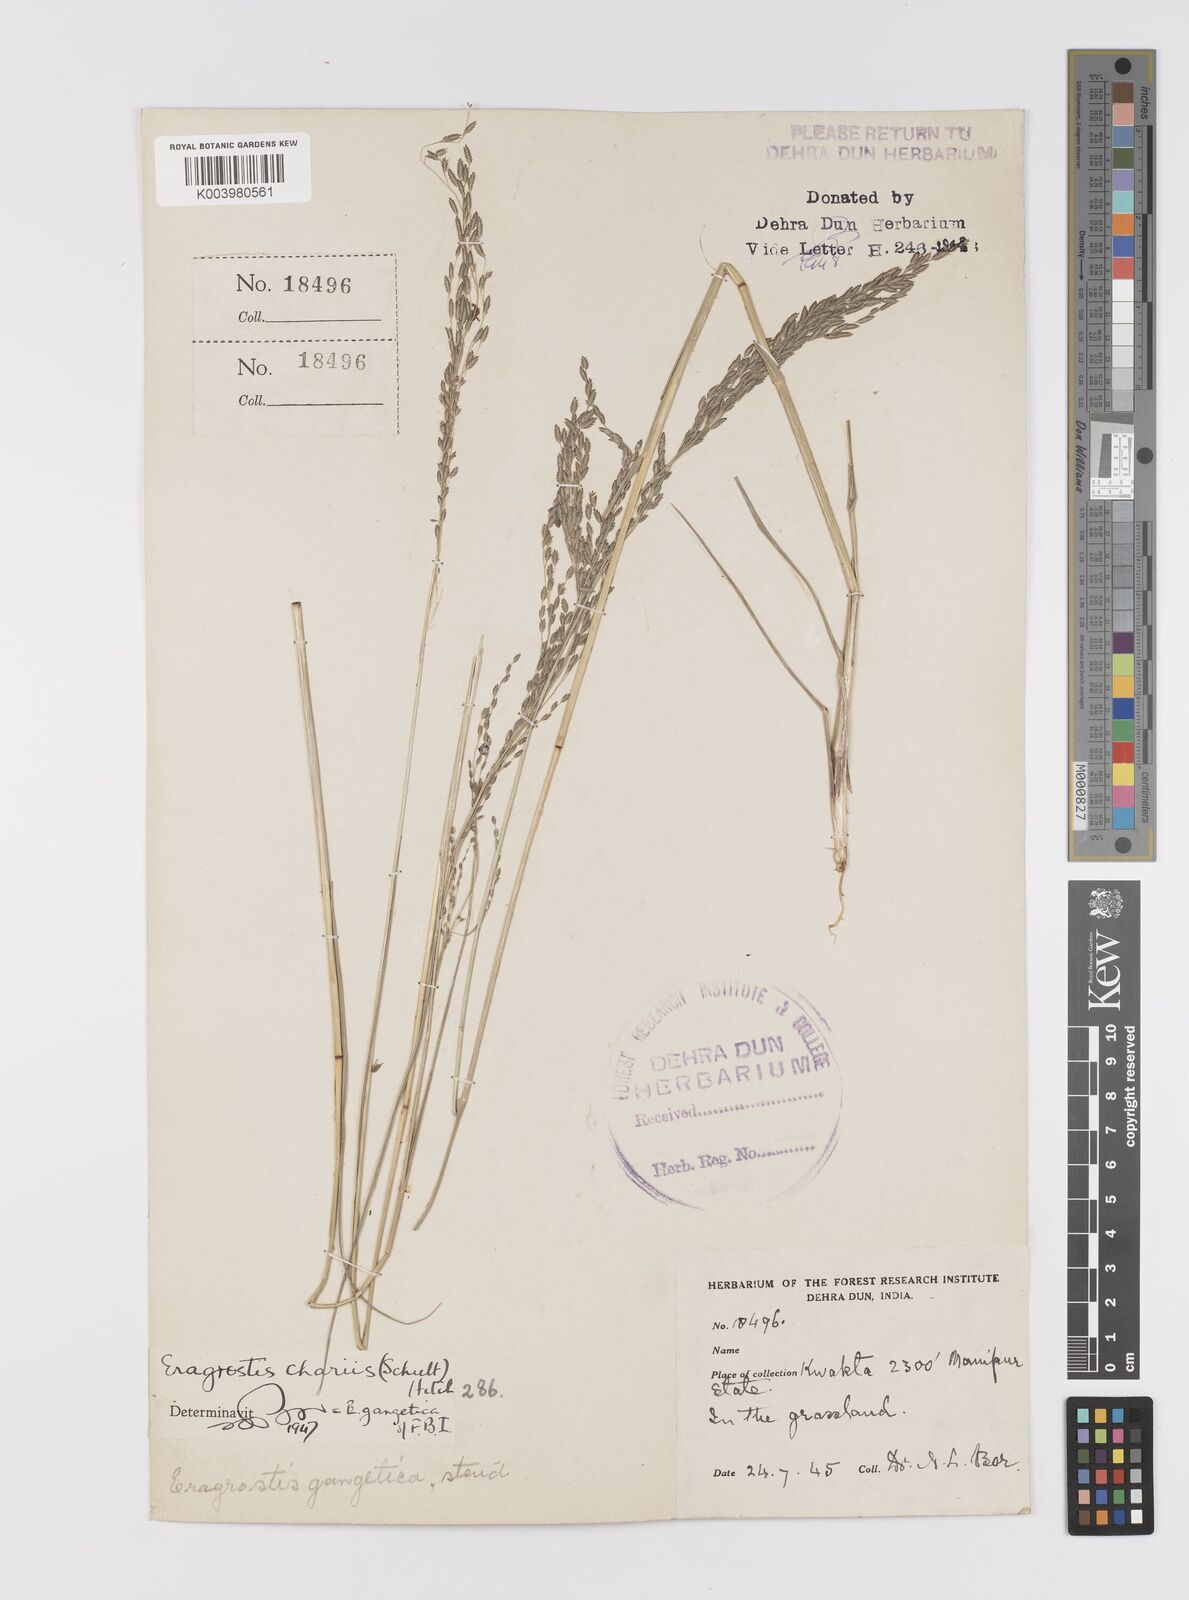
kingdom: Plantae
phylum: Tracheophyta
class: Liliopsida
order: Poales
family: Poaceae
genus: Eragrostis
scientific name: Eragrostis atrovirens
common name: Thalia lovegrass
